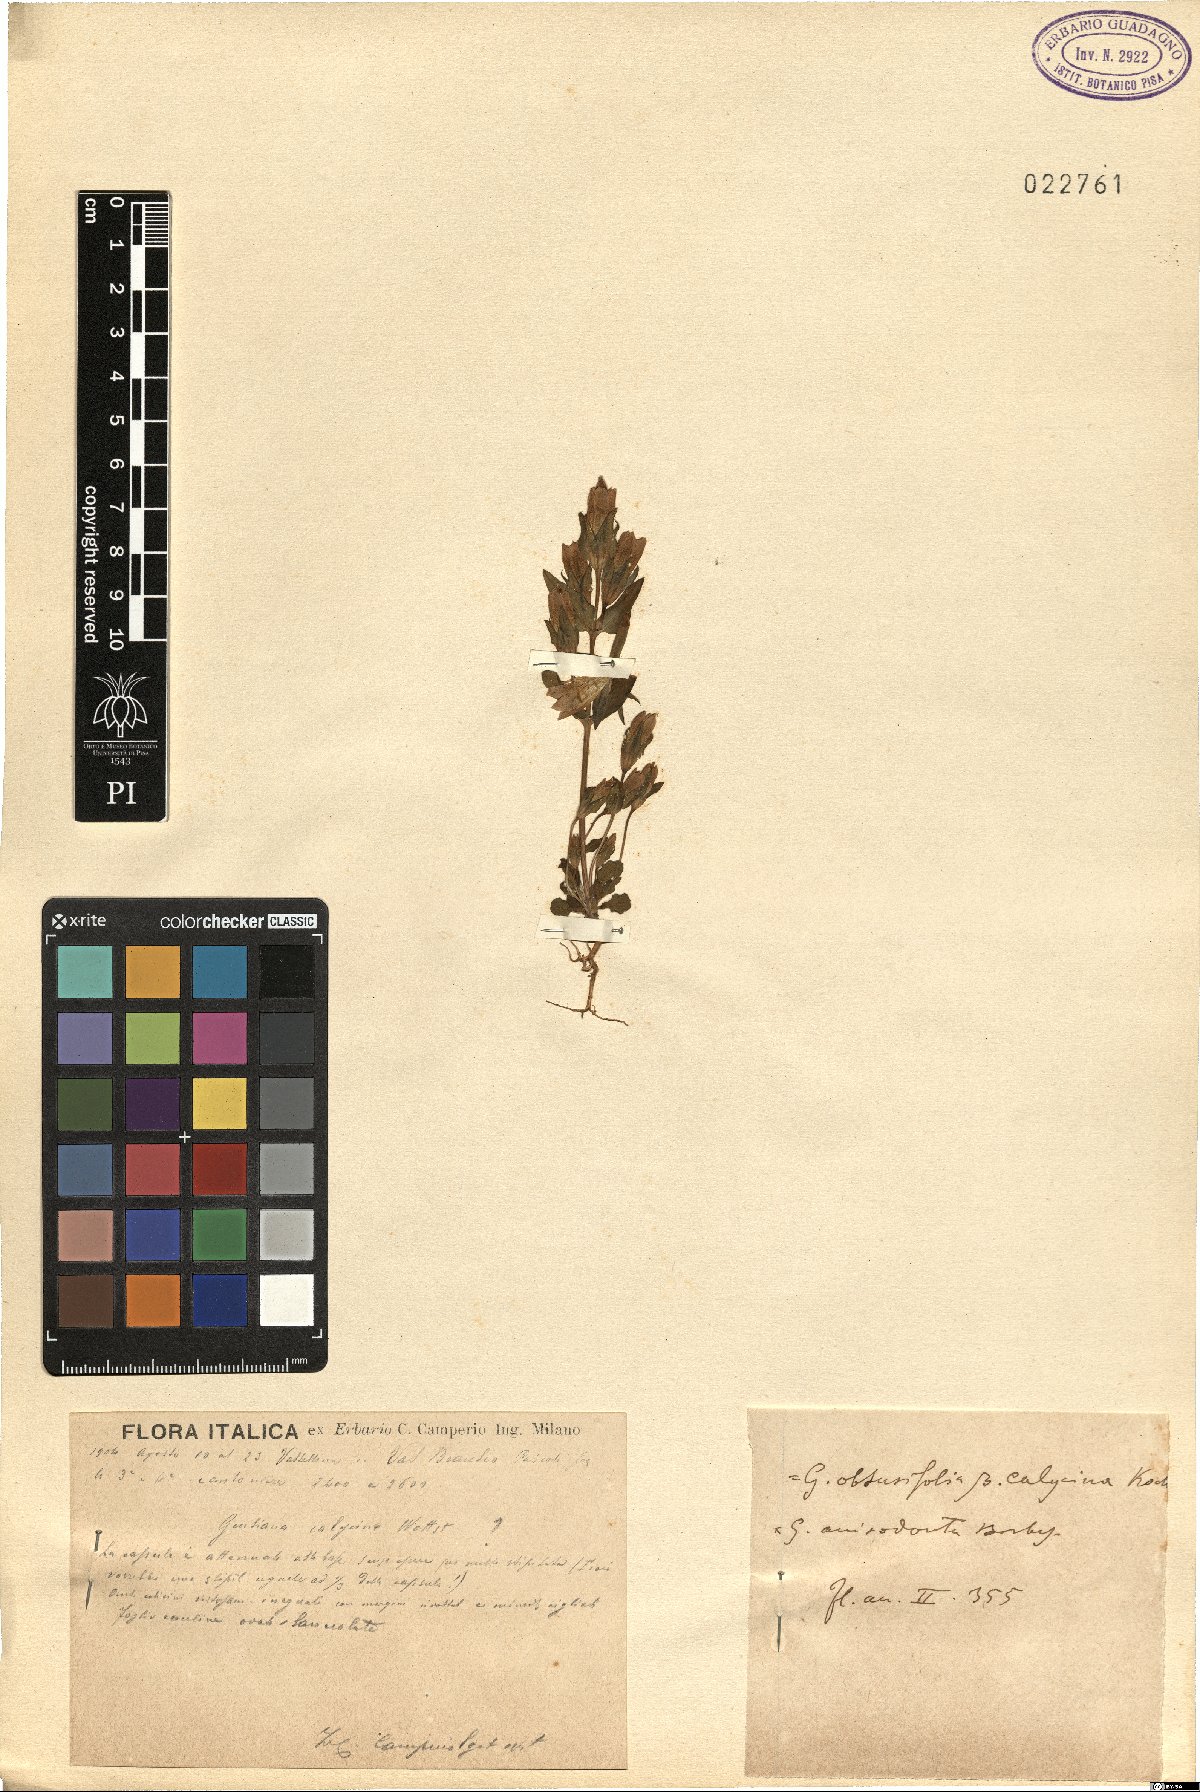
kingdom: Plantae
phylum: Tracheophyta
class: Magnoliopsida
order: Gentianales
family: Gentianaceae
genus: Gentianella
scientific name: Gentianella germanica
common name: Chiltern-gentian
